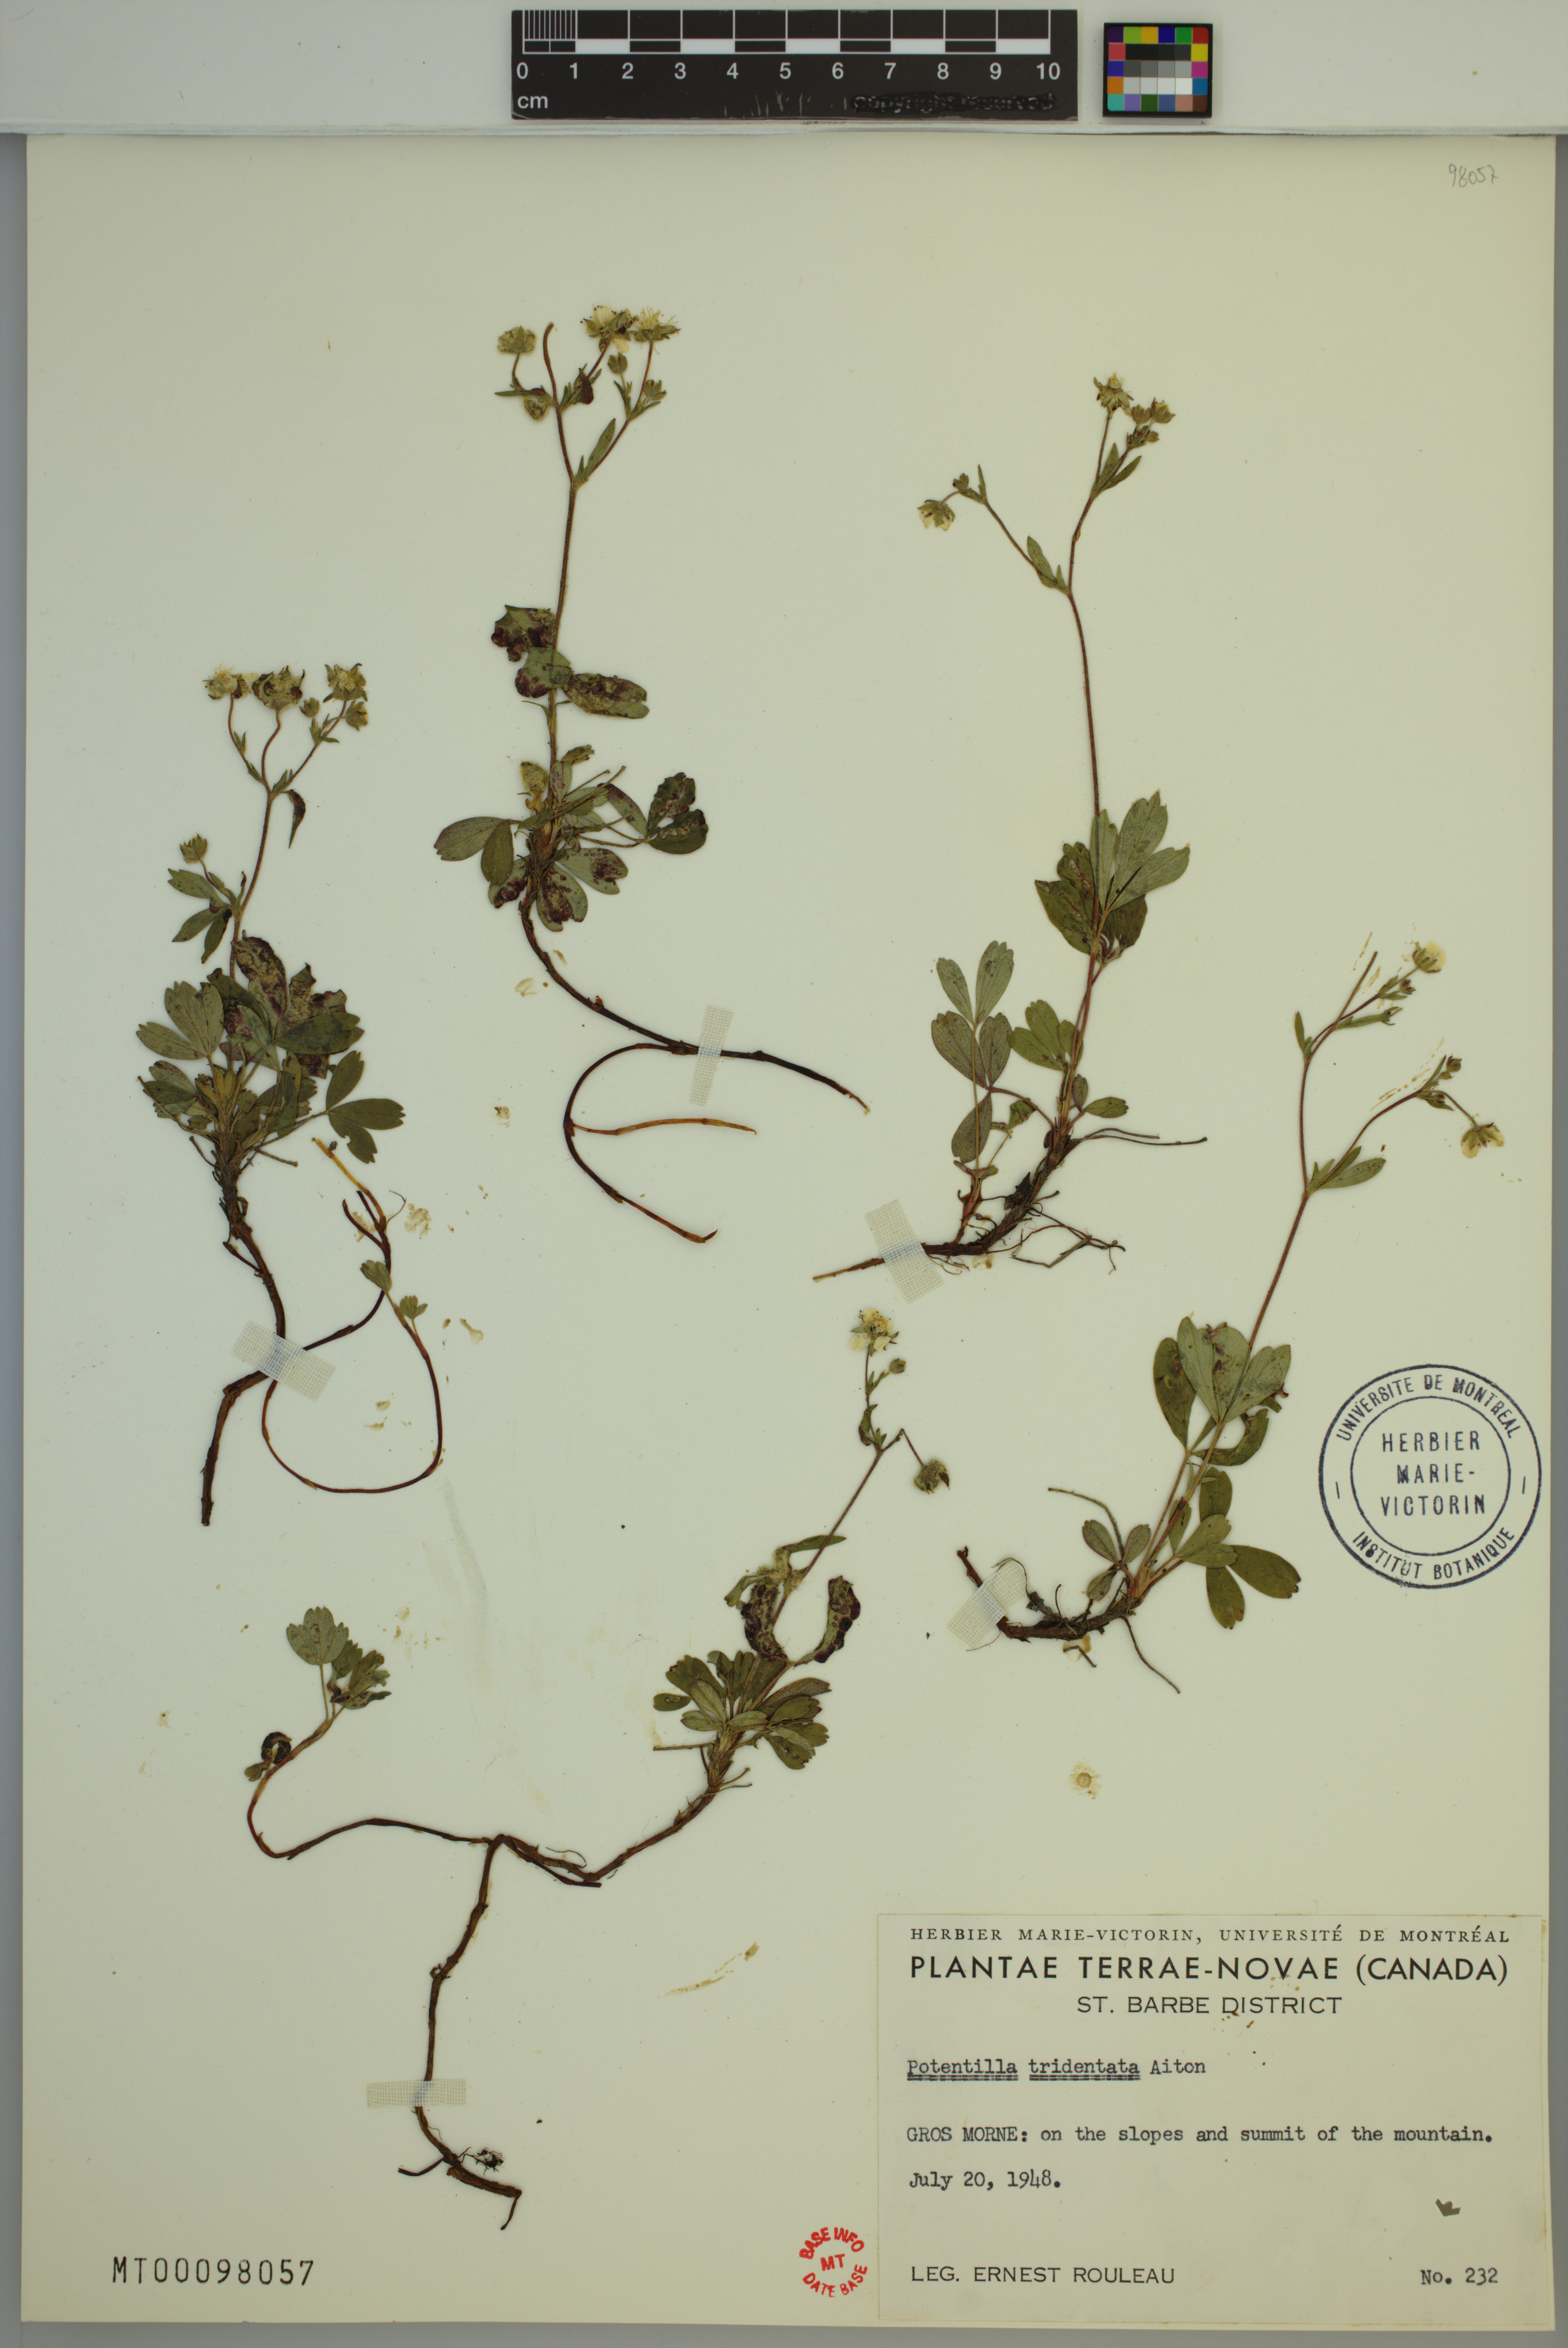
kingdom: Plantae
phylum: Tracheophyta
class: Magnoliopsida
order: Rosales
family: Rosaceae
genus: Sibbaldia
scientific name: Sibbaldia tridentata
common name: Three-toothed cinquefoil
